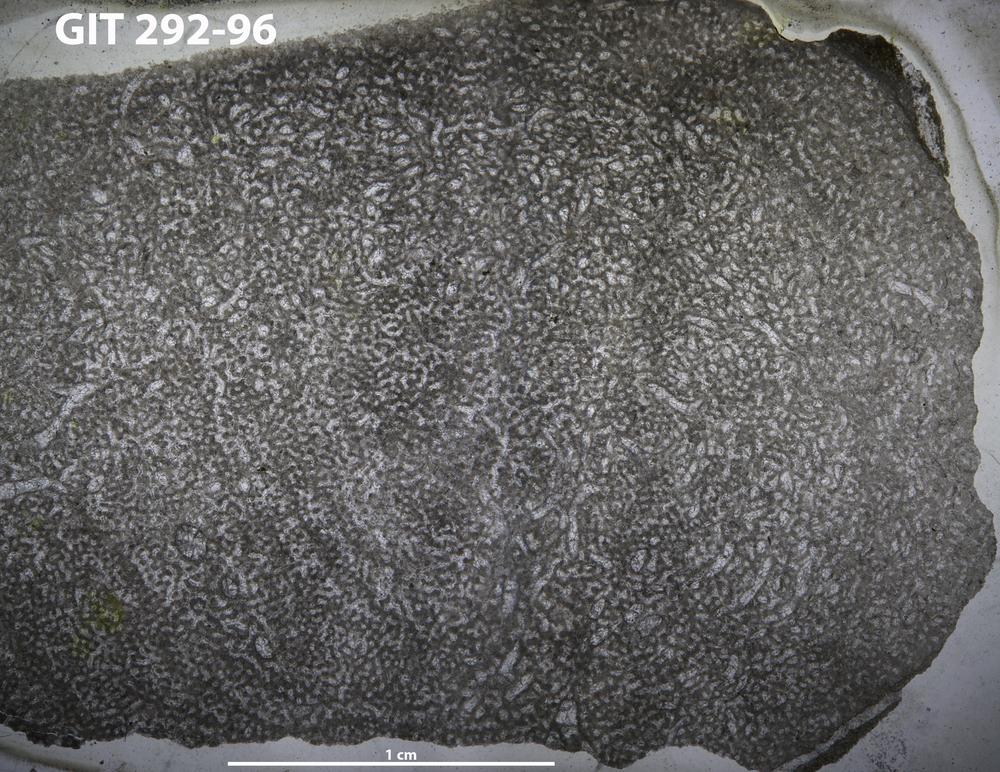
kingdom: Animalia
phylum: Porifera
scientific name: Porifera
